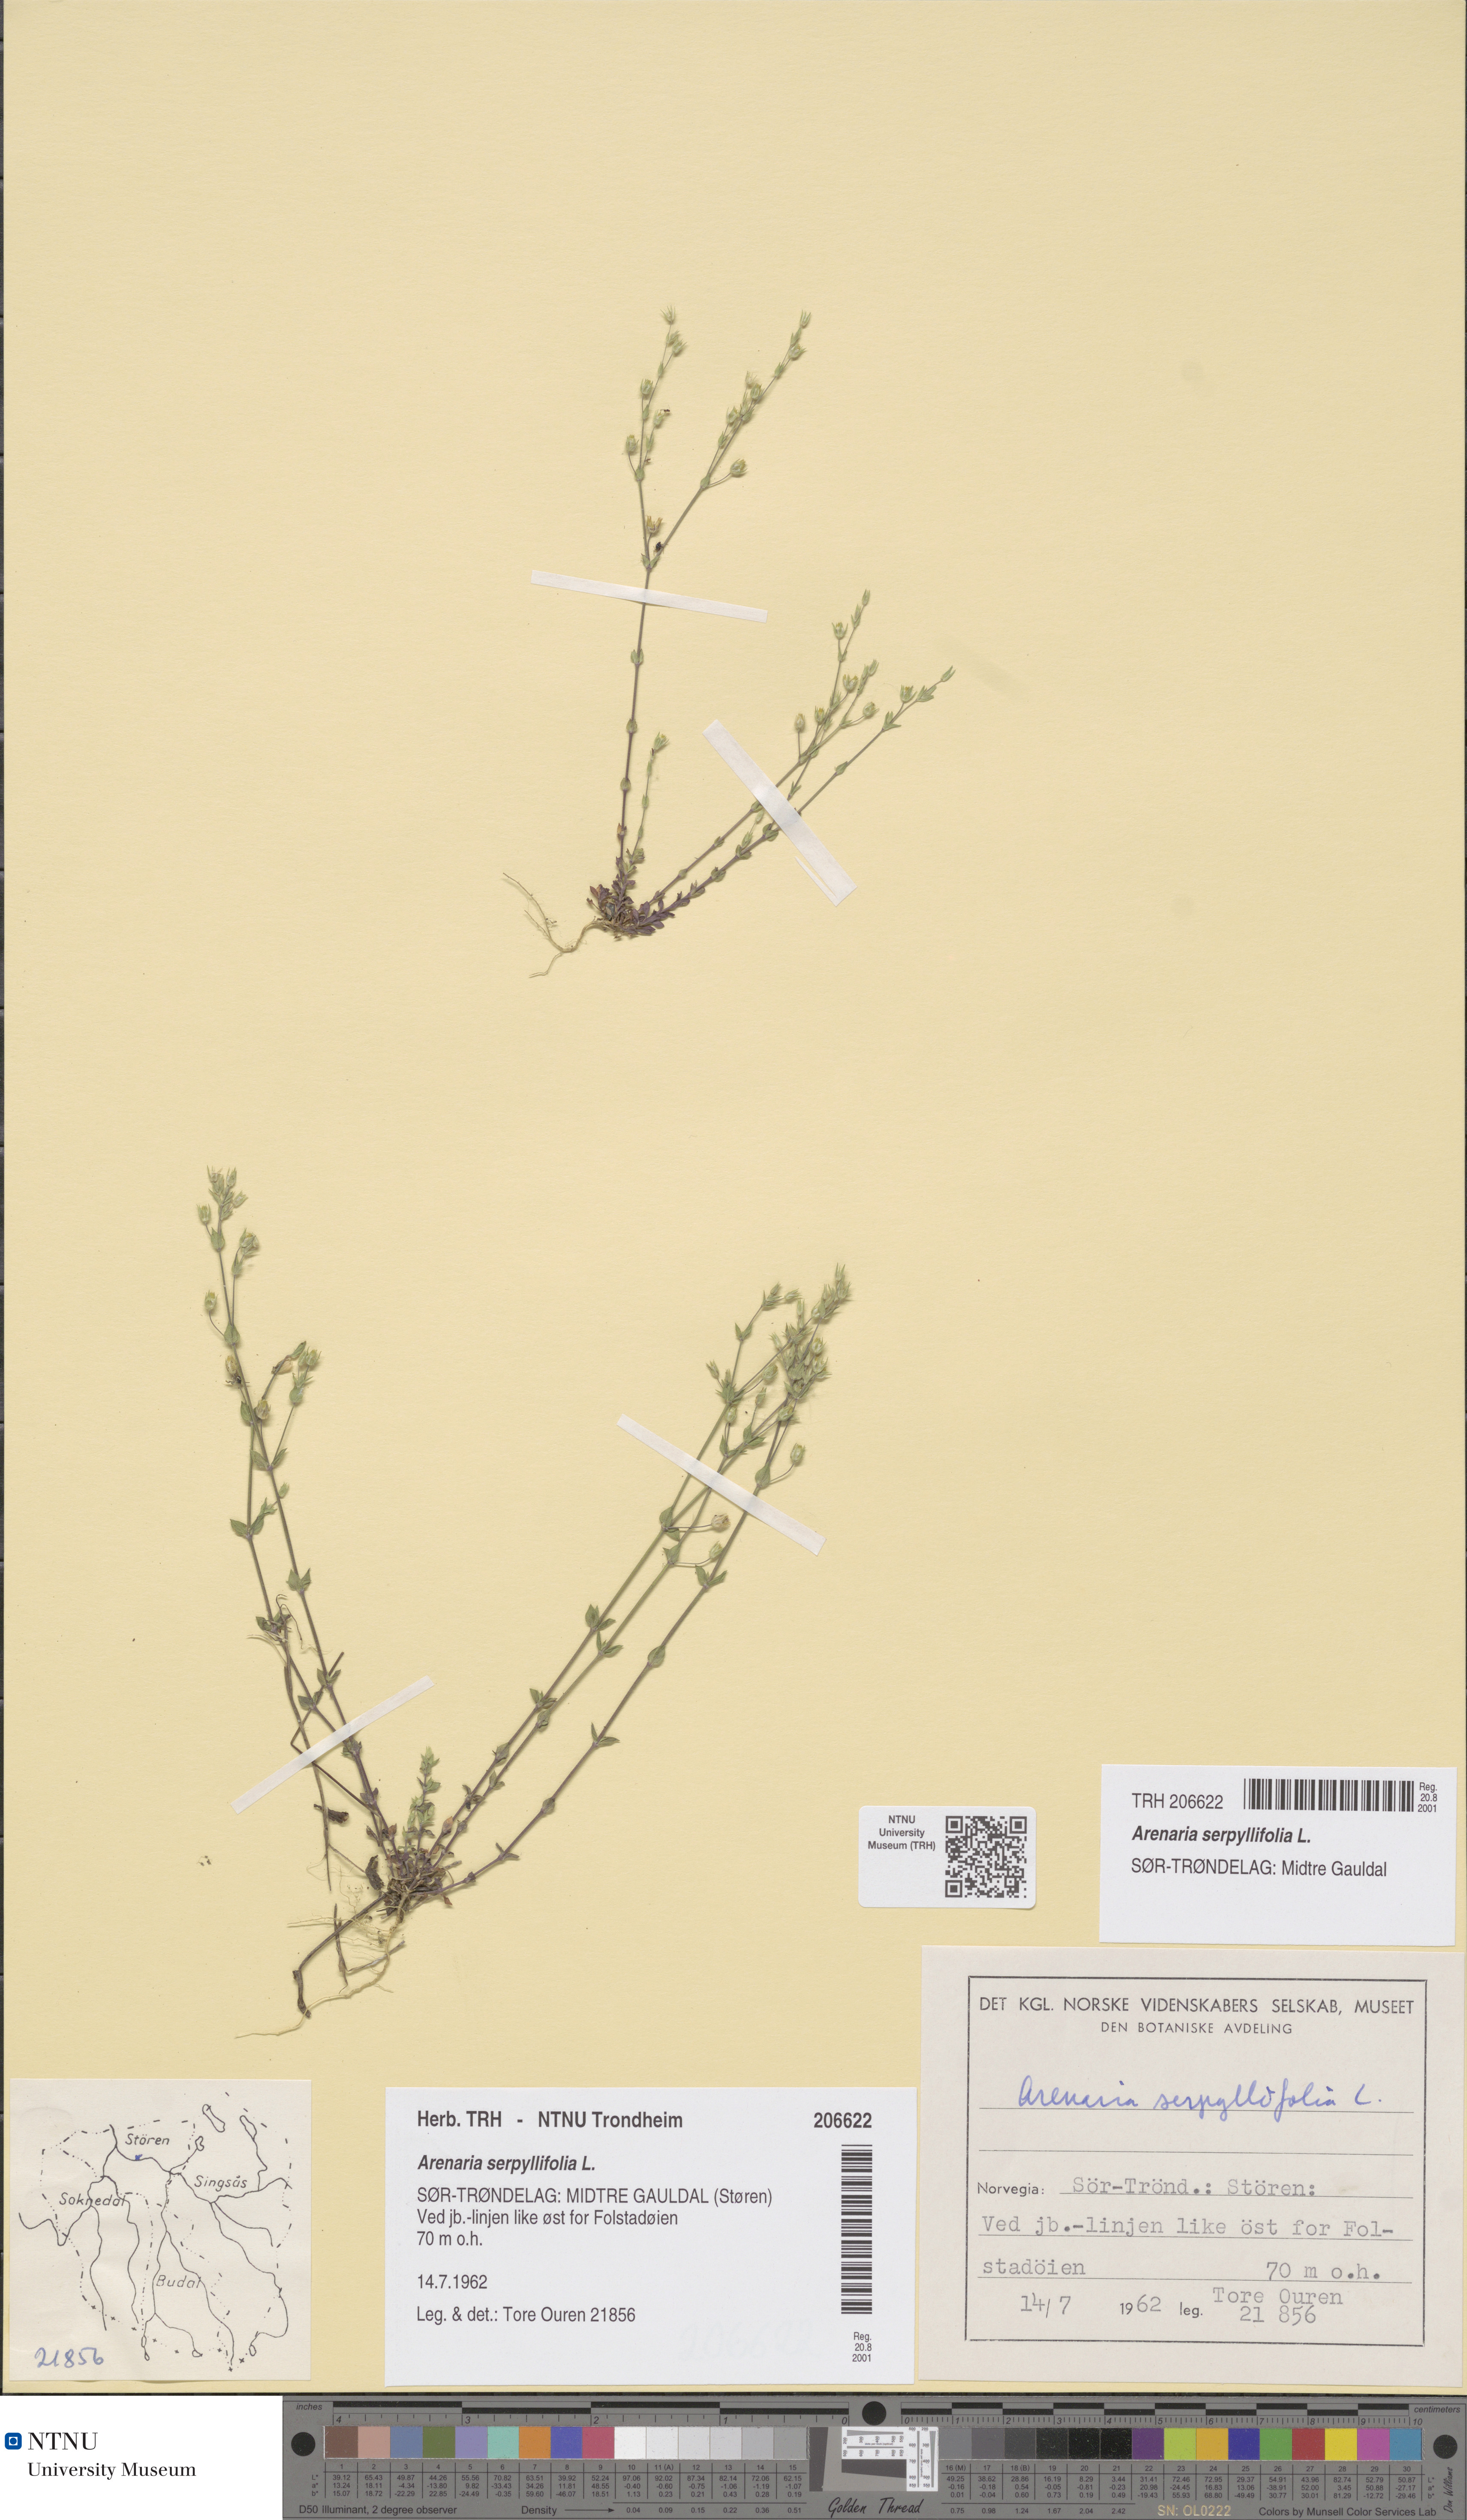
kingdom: Plantae
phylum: Tracheophyta
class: Magnoliopsida
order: Caryophyllales
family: Caryophyllaceae
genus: Arenaria
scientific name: Arenaria serpyllifolia
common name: Thyme-leaved sandwort
